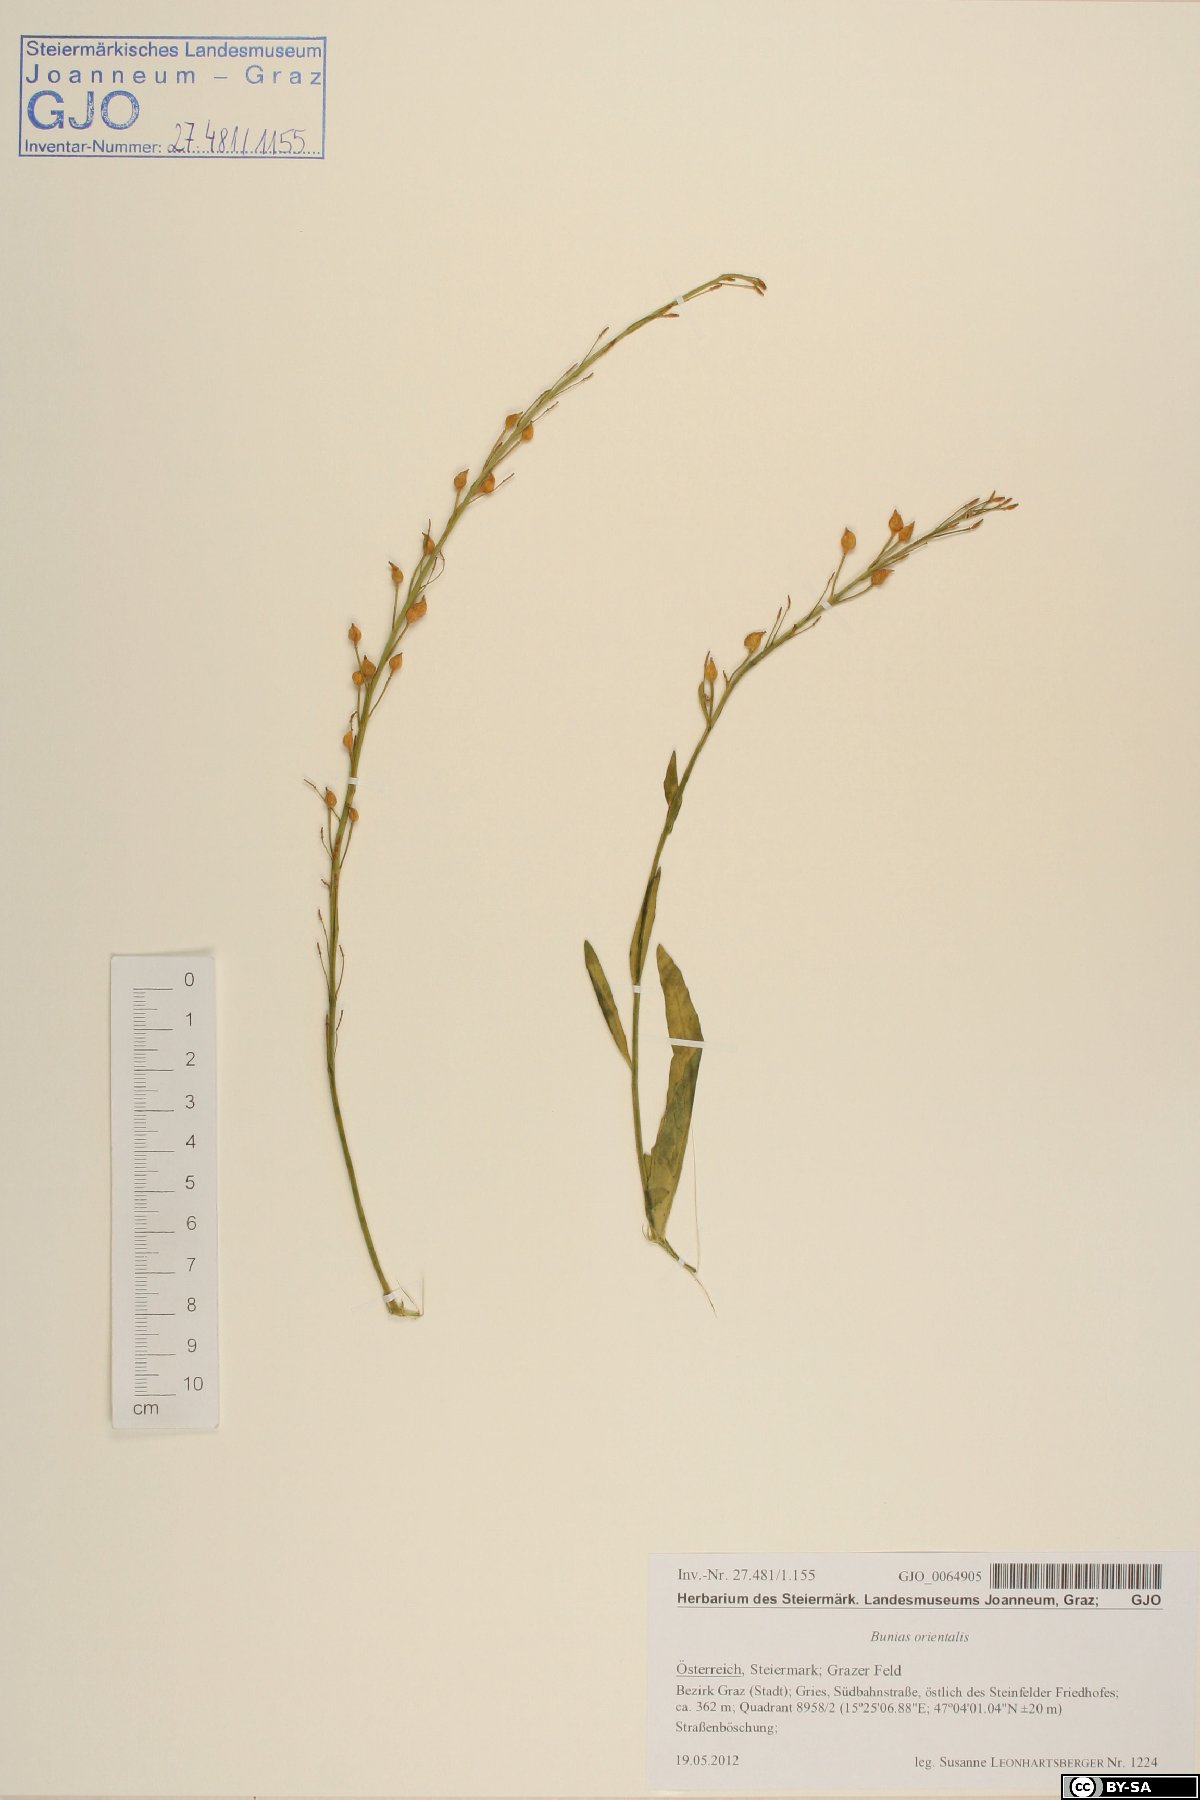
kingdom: Plantae
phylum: Tracheophyta
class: Magnoliopsida
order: Brassicales
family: Brassicaceae
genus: Bunias
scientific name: Bunias orientalis
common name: Warty-cabbage
